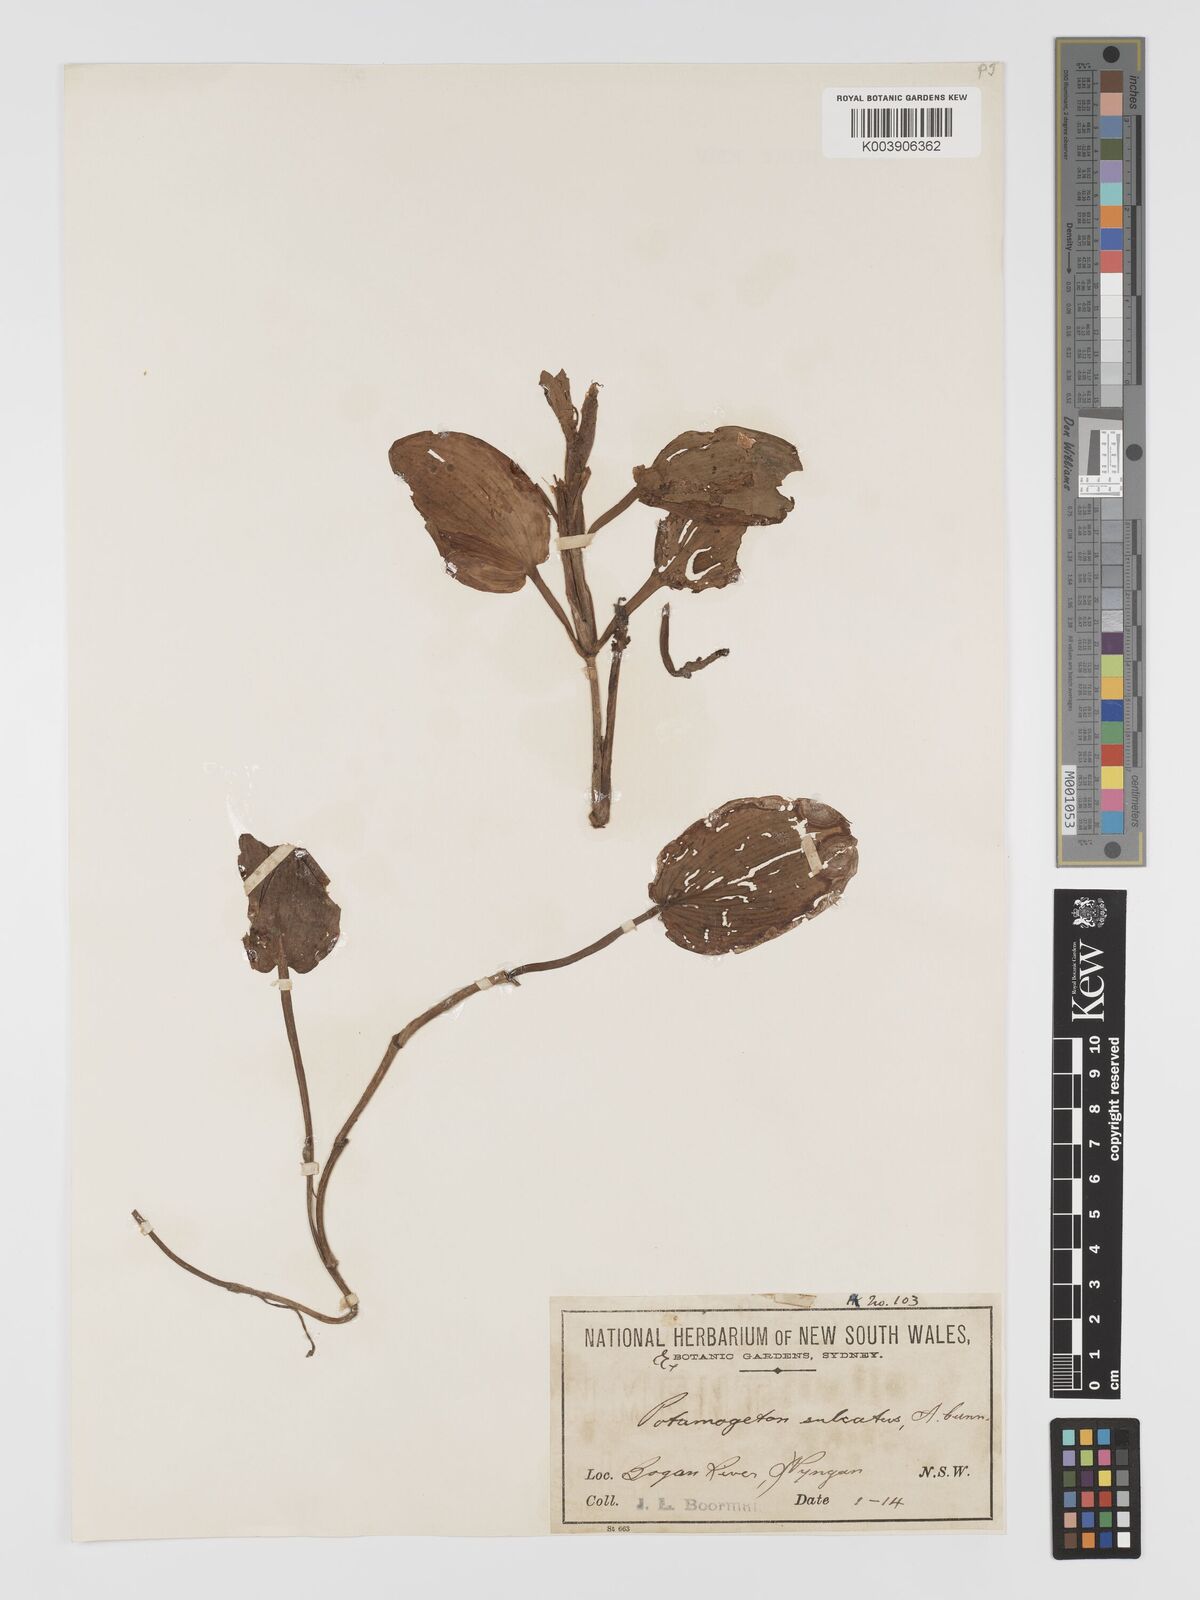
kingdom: Plantae
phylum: Tracheophyta
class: Liliopsida
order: Alismatales
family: Potamogetonaceae
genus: Potamogeton
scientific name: Potamogeton sulcatus
